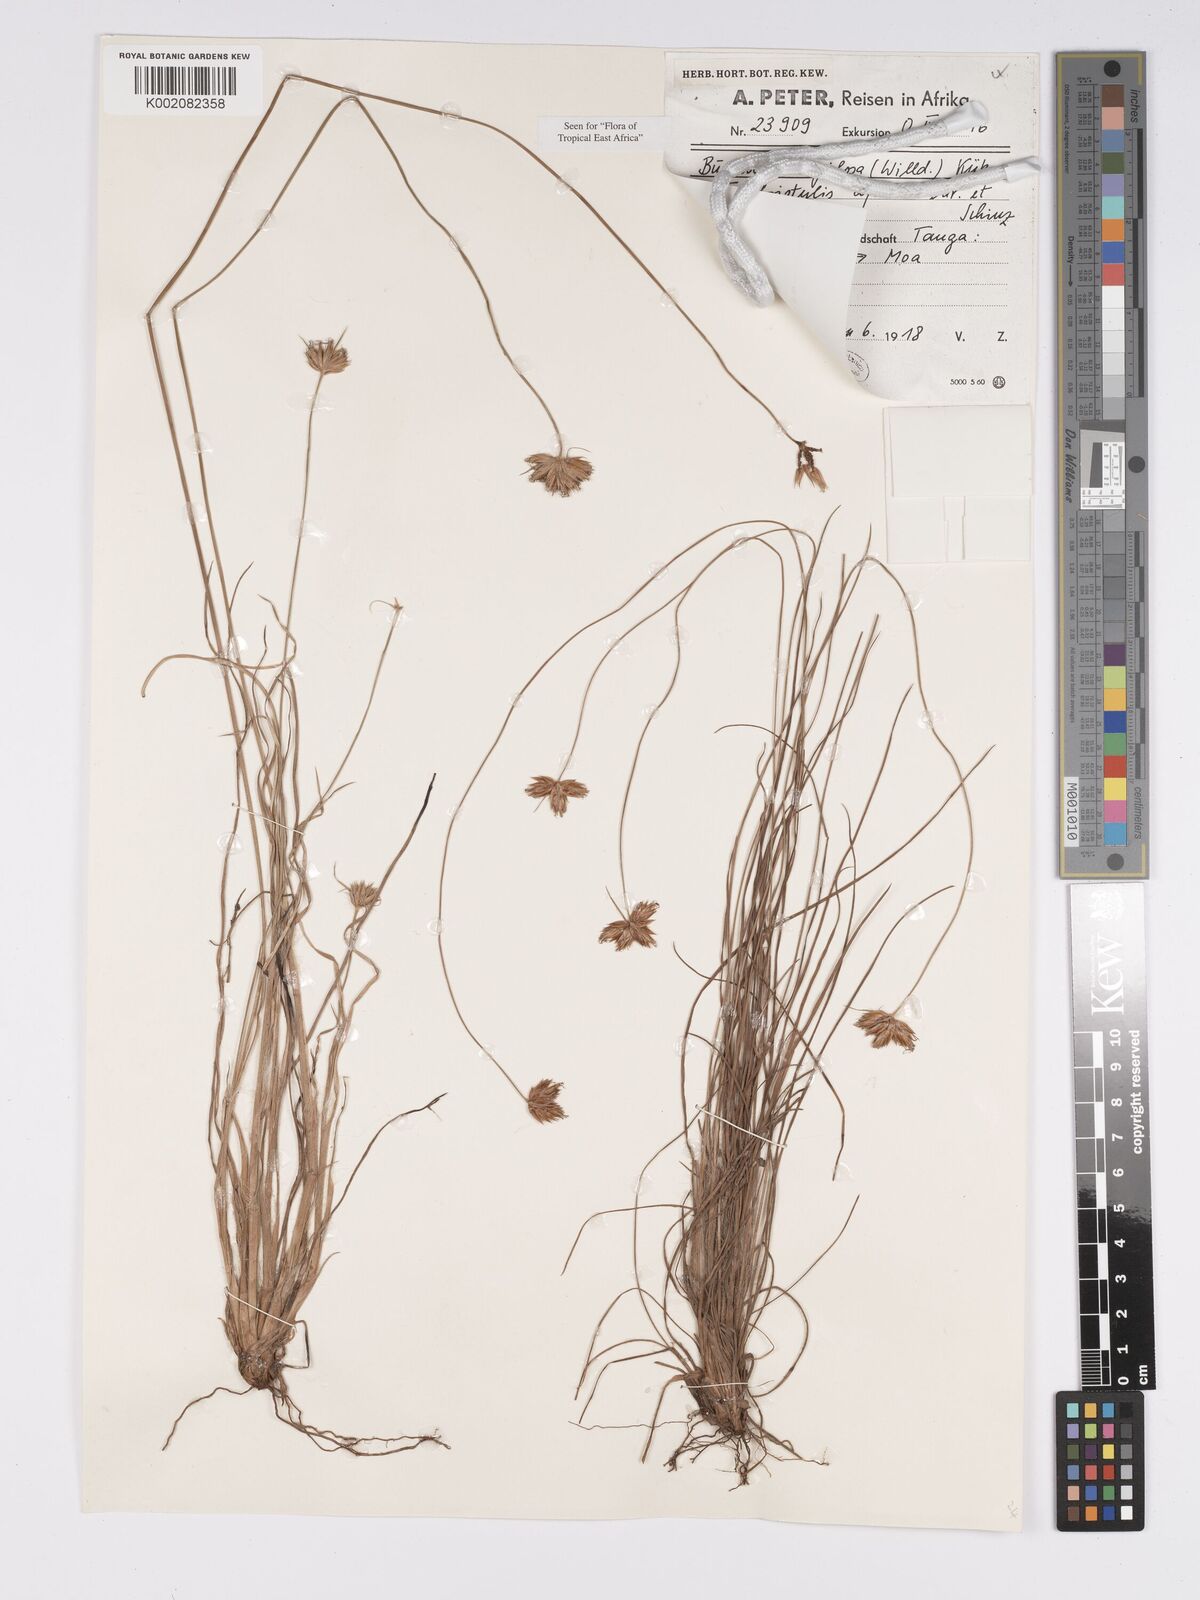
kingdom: Plantae
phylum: Tracheophyta
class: Liliopsida
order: Poales
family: Cyperaceae
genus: Bulbostylis
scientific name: Bulbostylis pilosa
